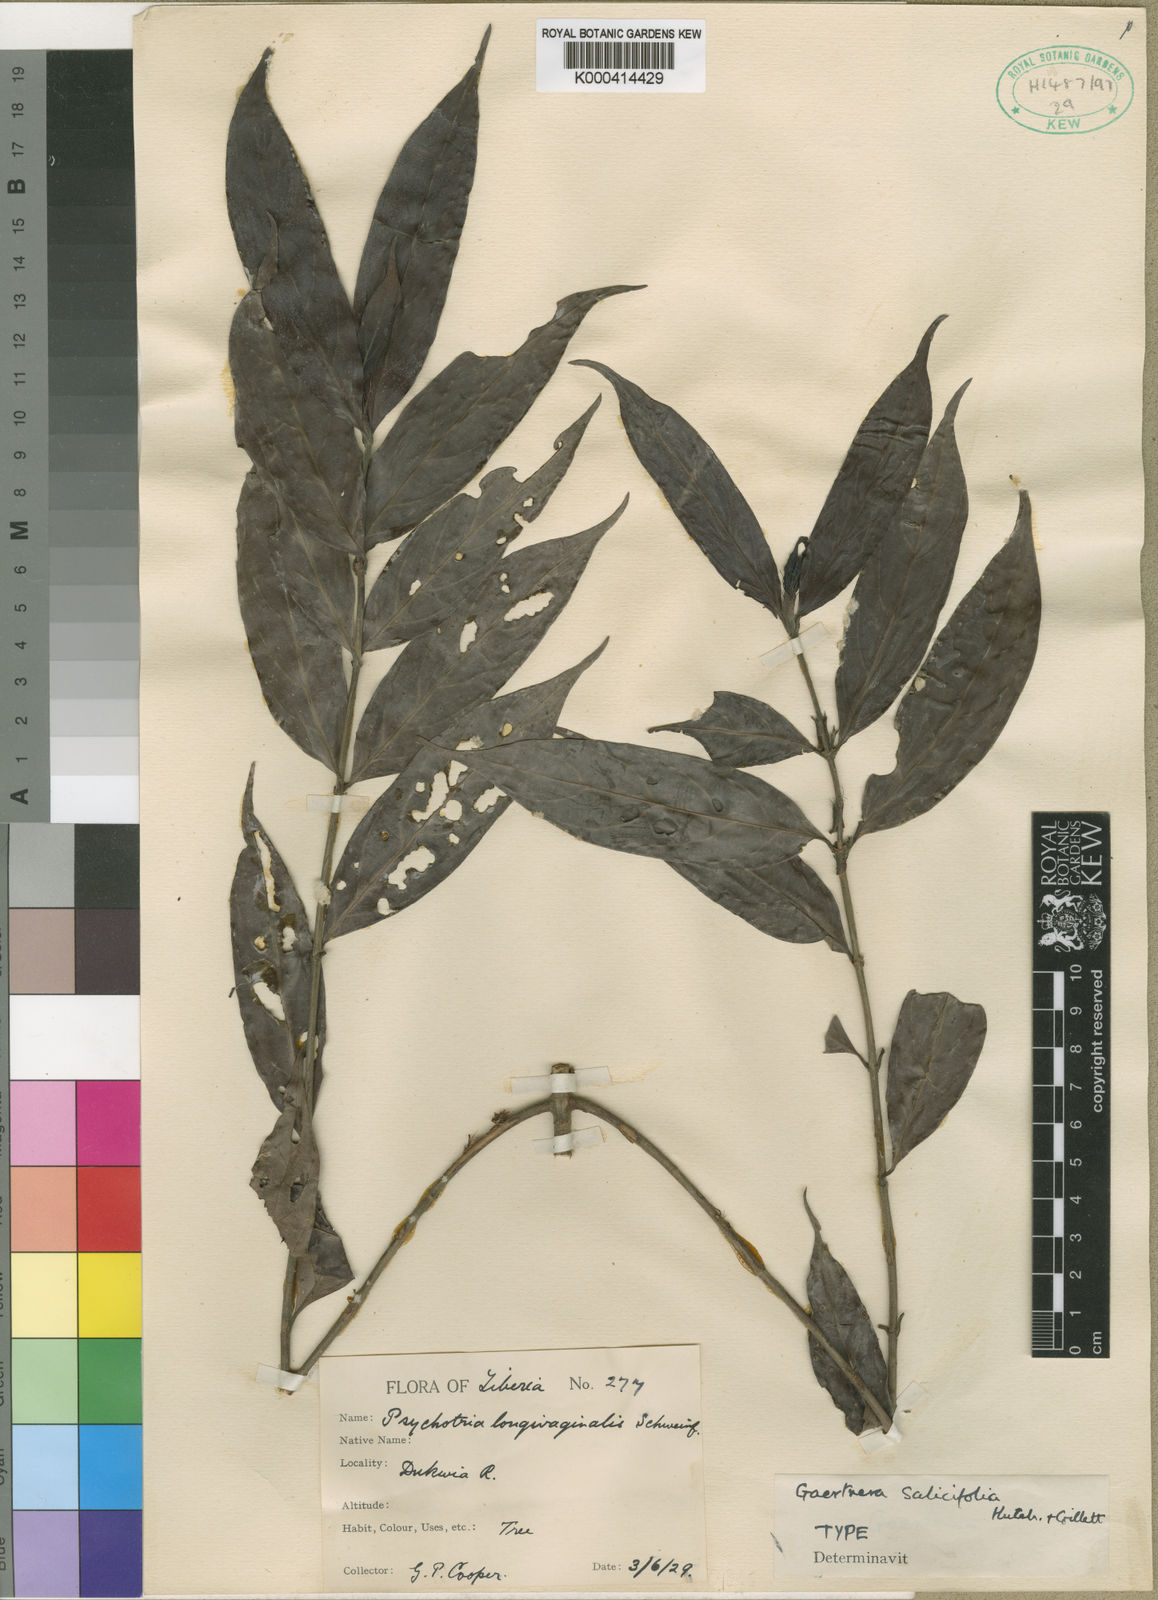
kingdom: Plantae
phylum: Tracheophyta
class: Magnoliopsida
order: Gentianales
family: Rubiaceae
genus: Gaertnera
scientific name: Gaertnera liberiensis
